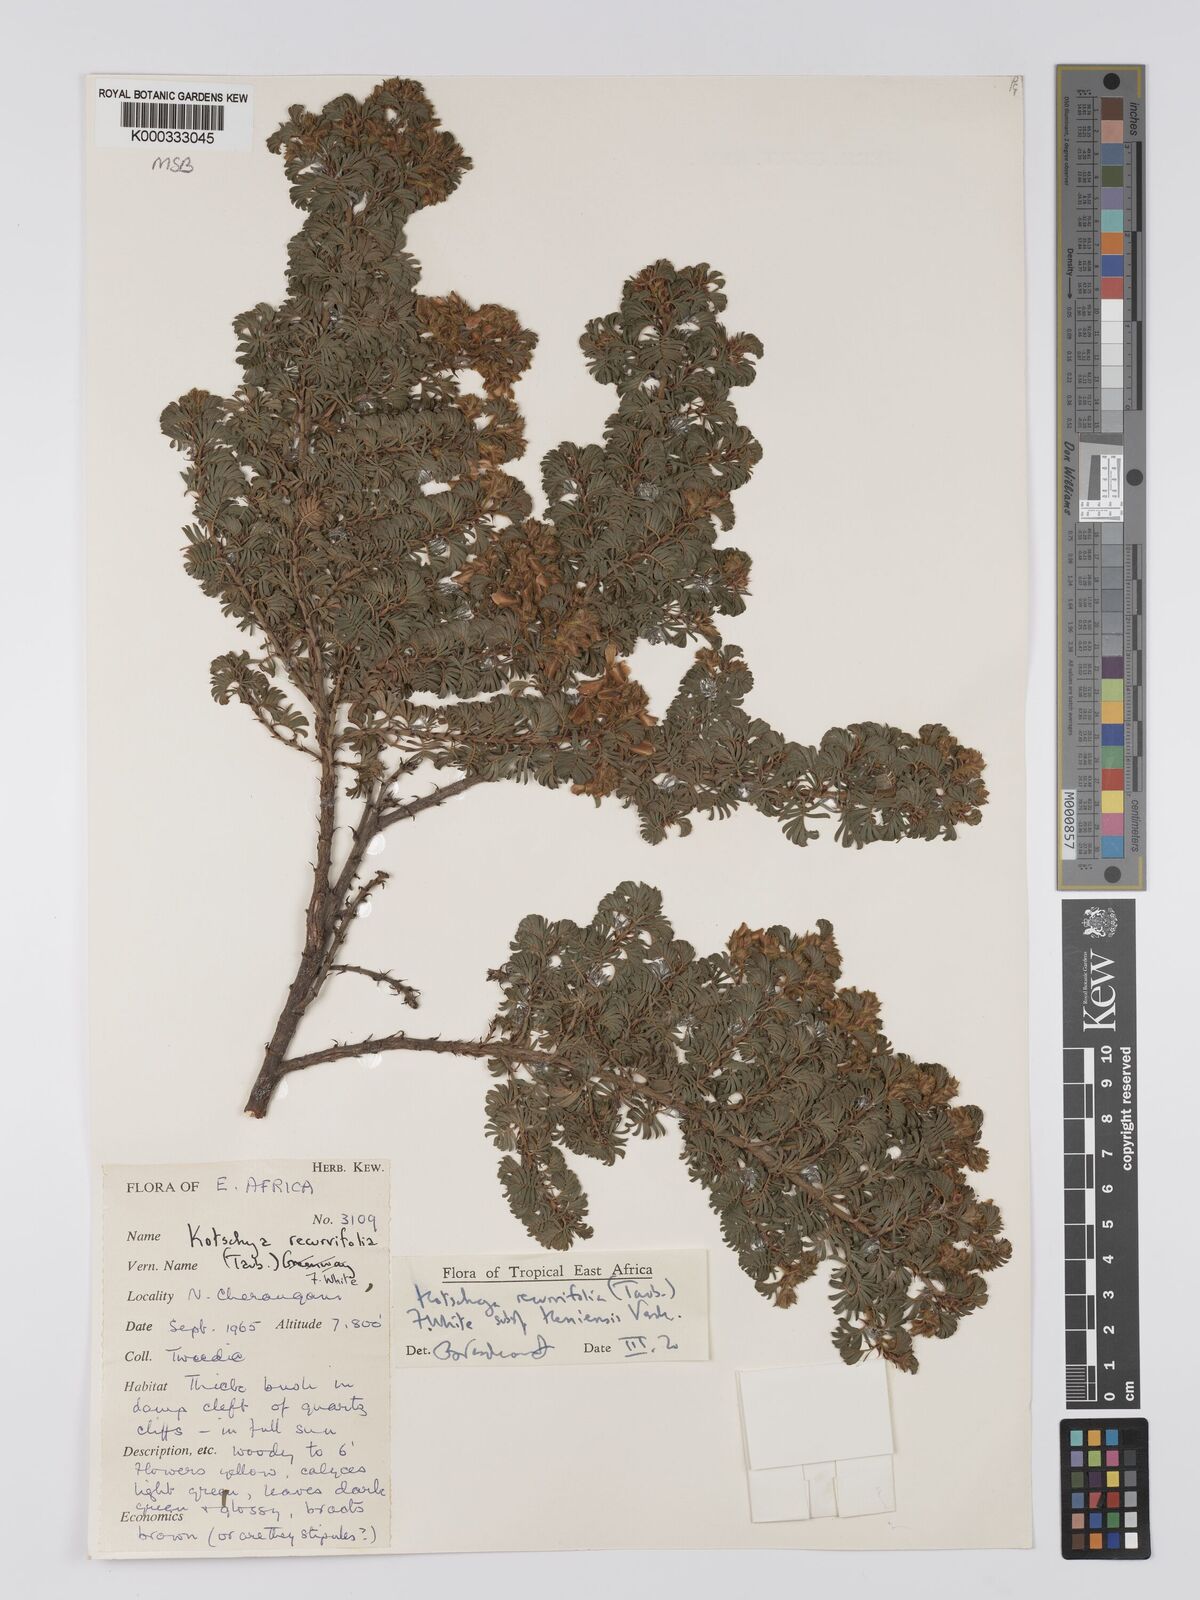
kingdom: Plantae
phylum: Tracheophyta
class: Magnoliopsida
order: Fabales
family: Fabaceae
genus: Kotschya
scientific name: Kotschya recurvifolia
